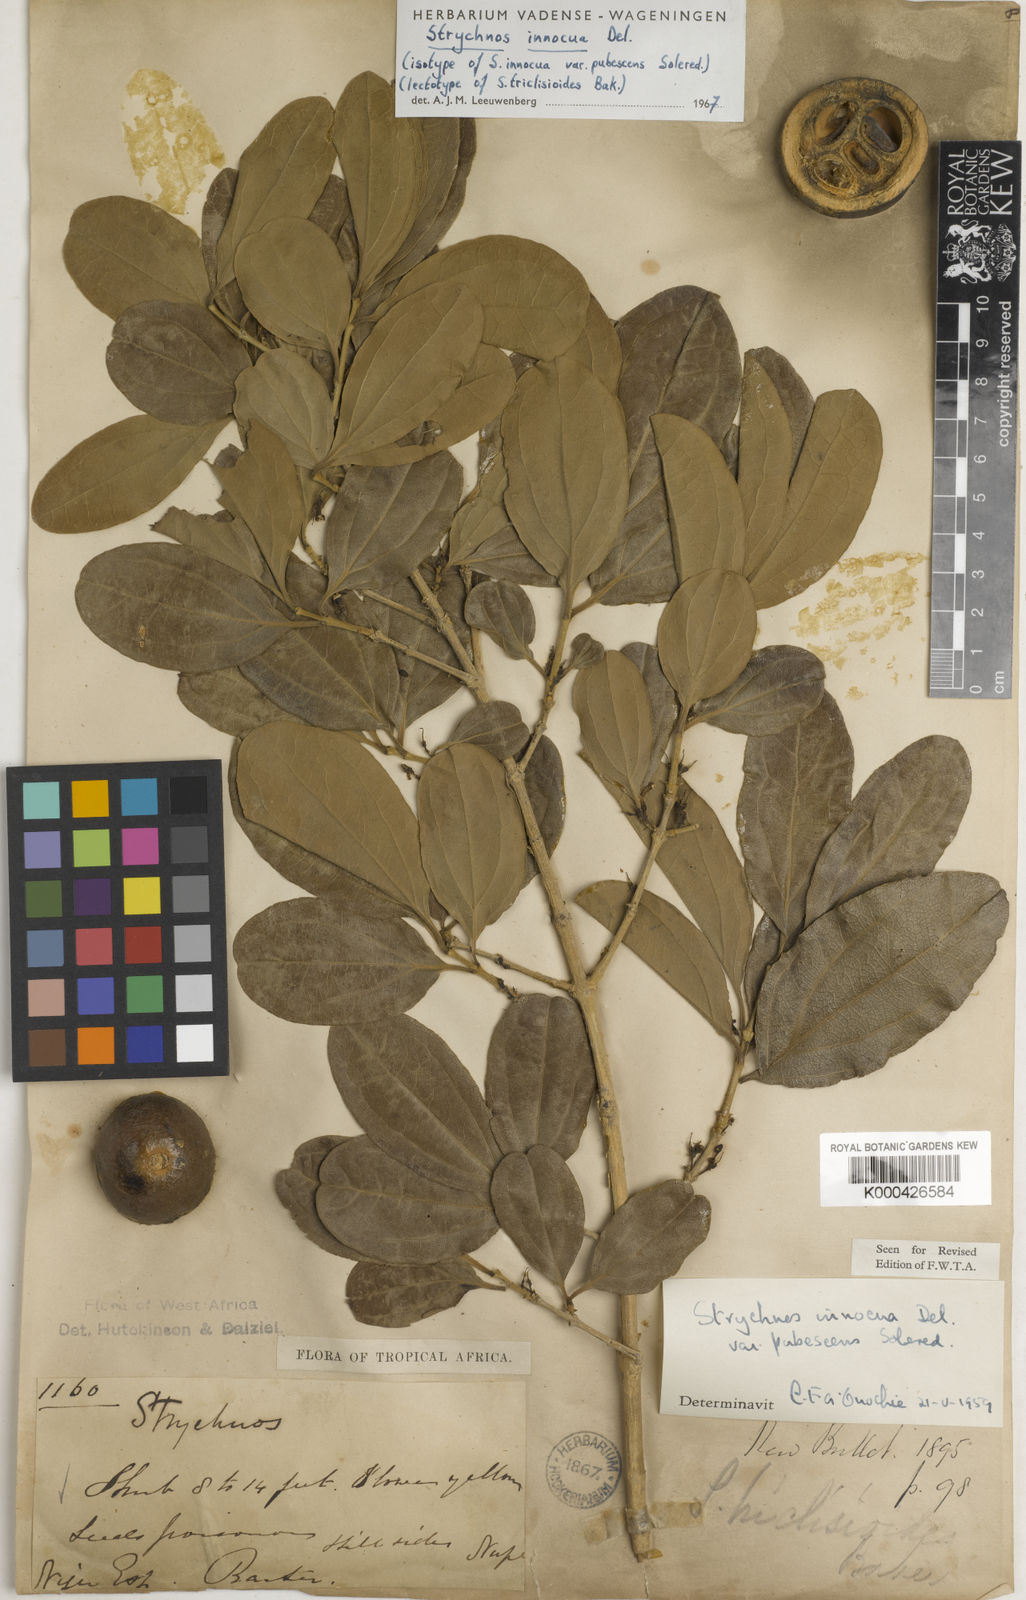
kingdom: Plantae
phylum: Tracheophyta
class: Magnoliopsida
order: Gentianales
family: Loganiaceae
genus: Strychnos
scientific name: Strychnos innocua
